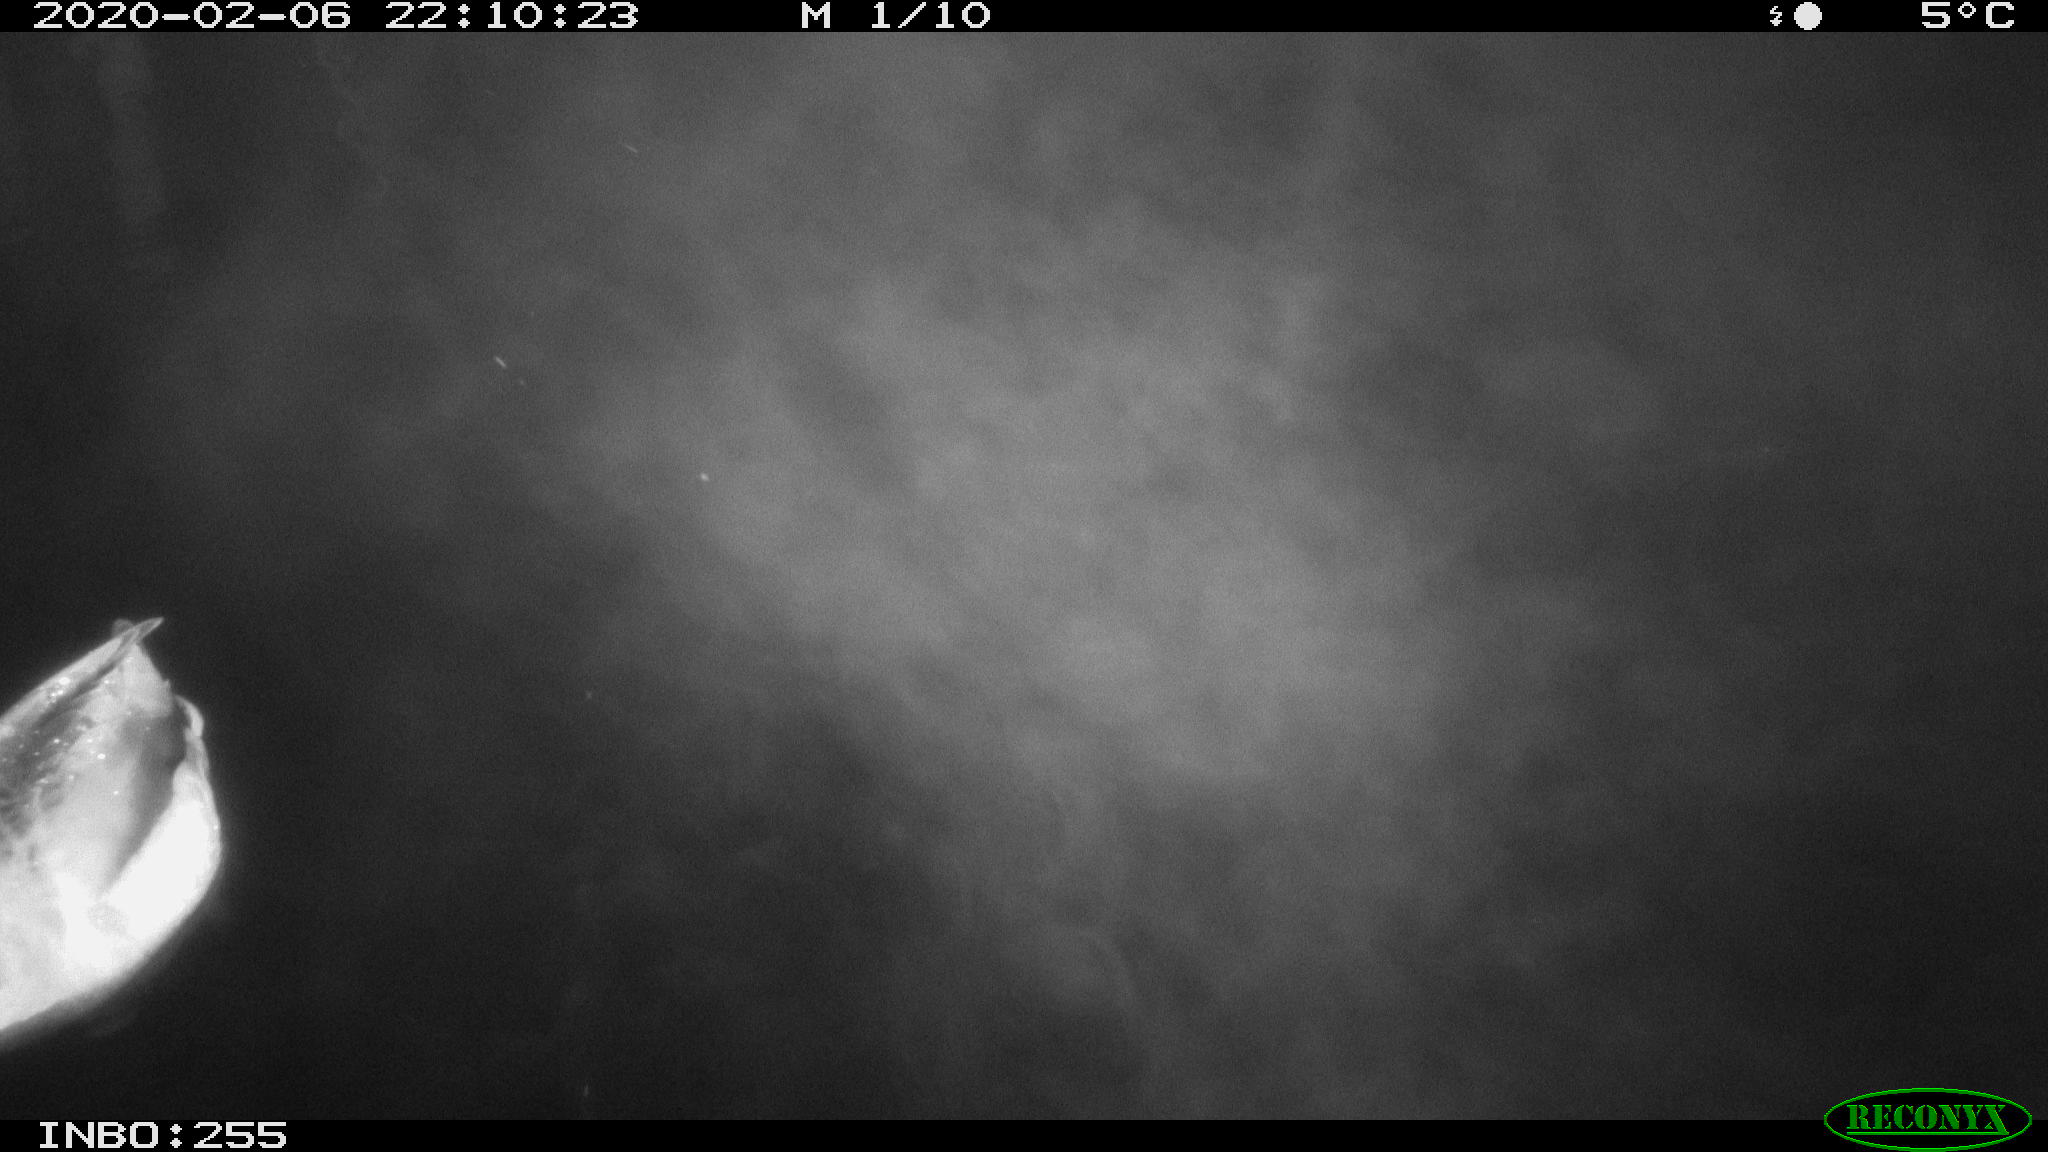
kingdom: Animalia
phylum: Chordata
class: Aves
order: Anseriformes
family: Anatidae
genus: Anas
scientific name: Anas platyrhynchos
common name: Mallard
